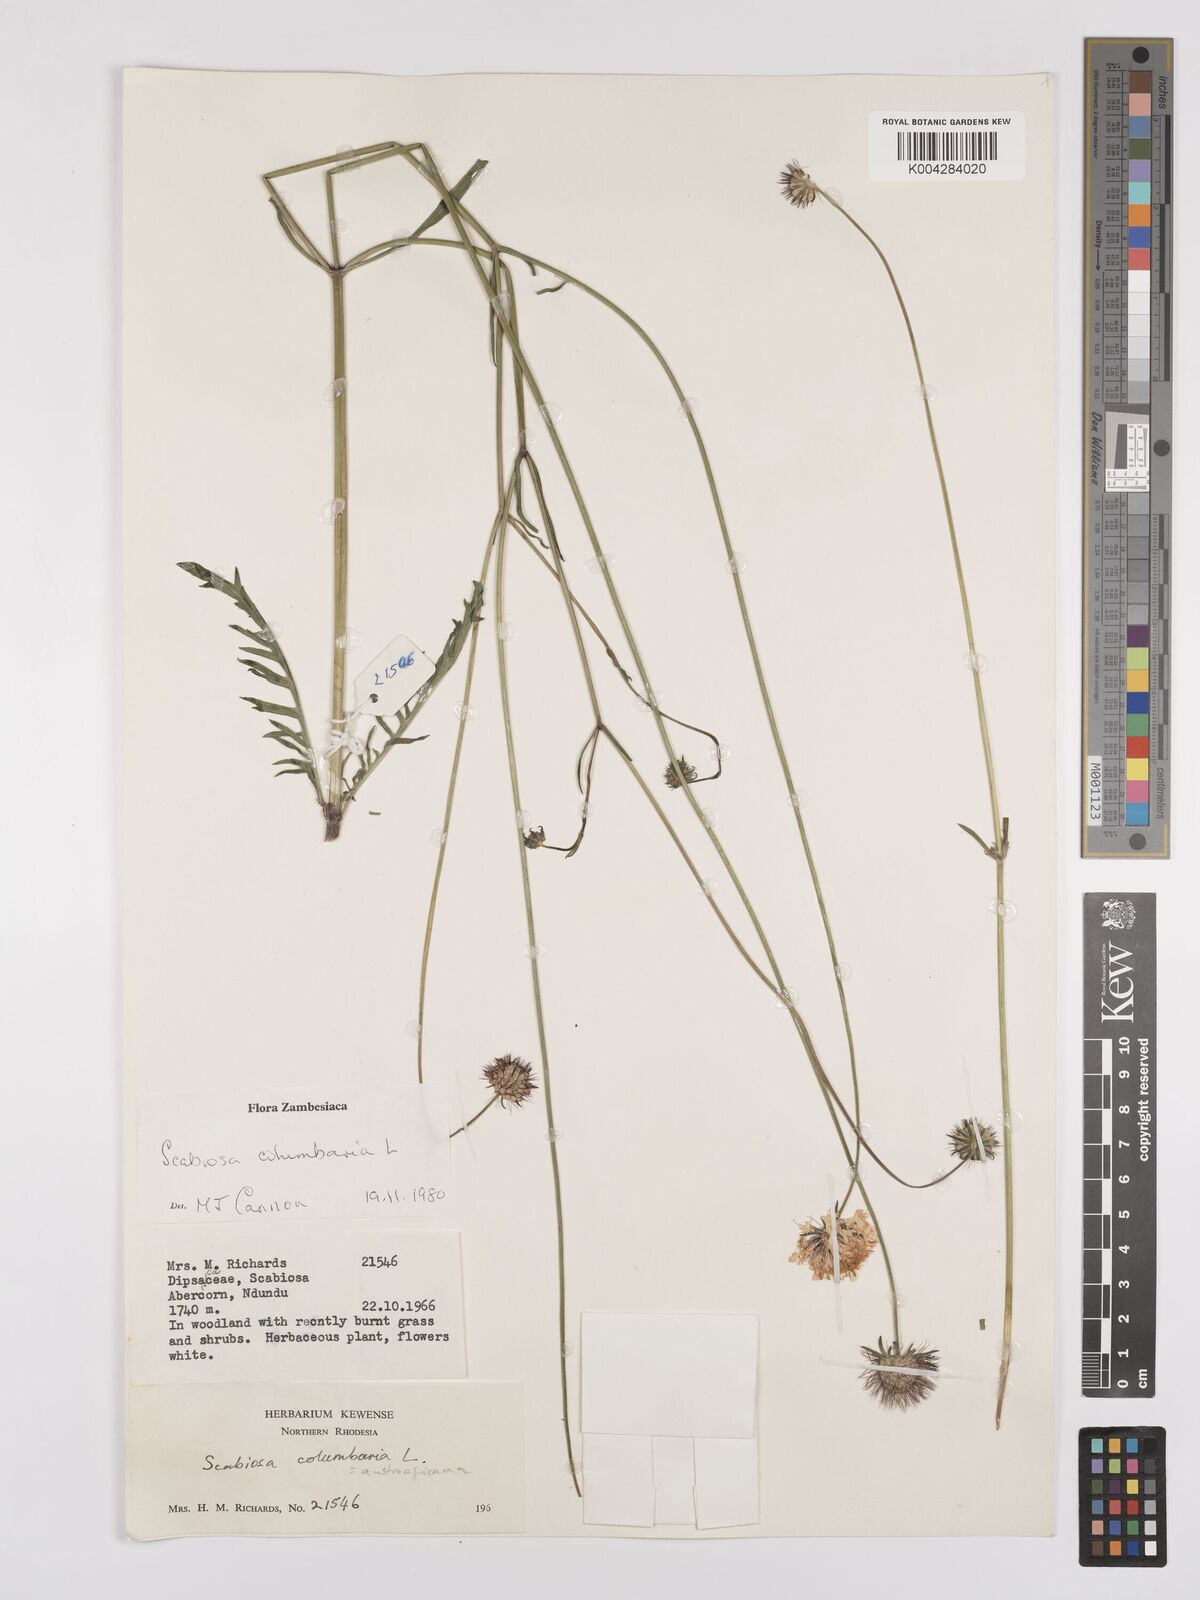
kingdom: Plantae
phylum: Tracheophyta
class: Magnoliopsida
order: Dipsacales
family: Caprifoliaceae
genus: Scabiosa
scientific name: Scabiosa austroafricana
